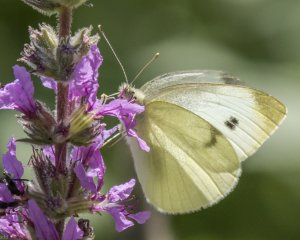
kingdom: Animalia
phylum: Arthropoda
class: Insecta
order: Lepidoptera
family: Pieridae
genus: Pieris
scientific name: Pieris rapae
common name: Cabbage White
